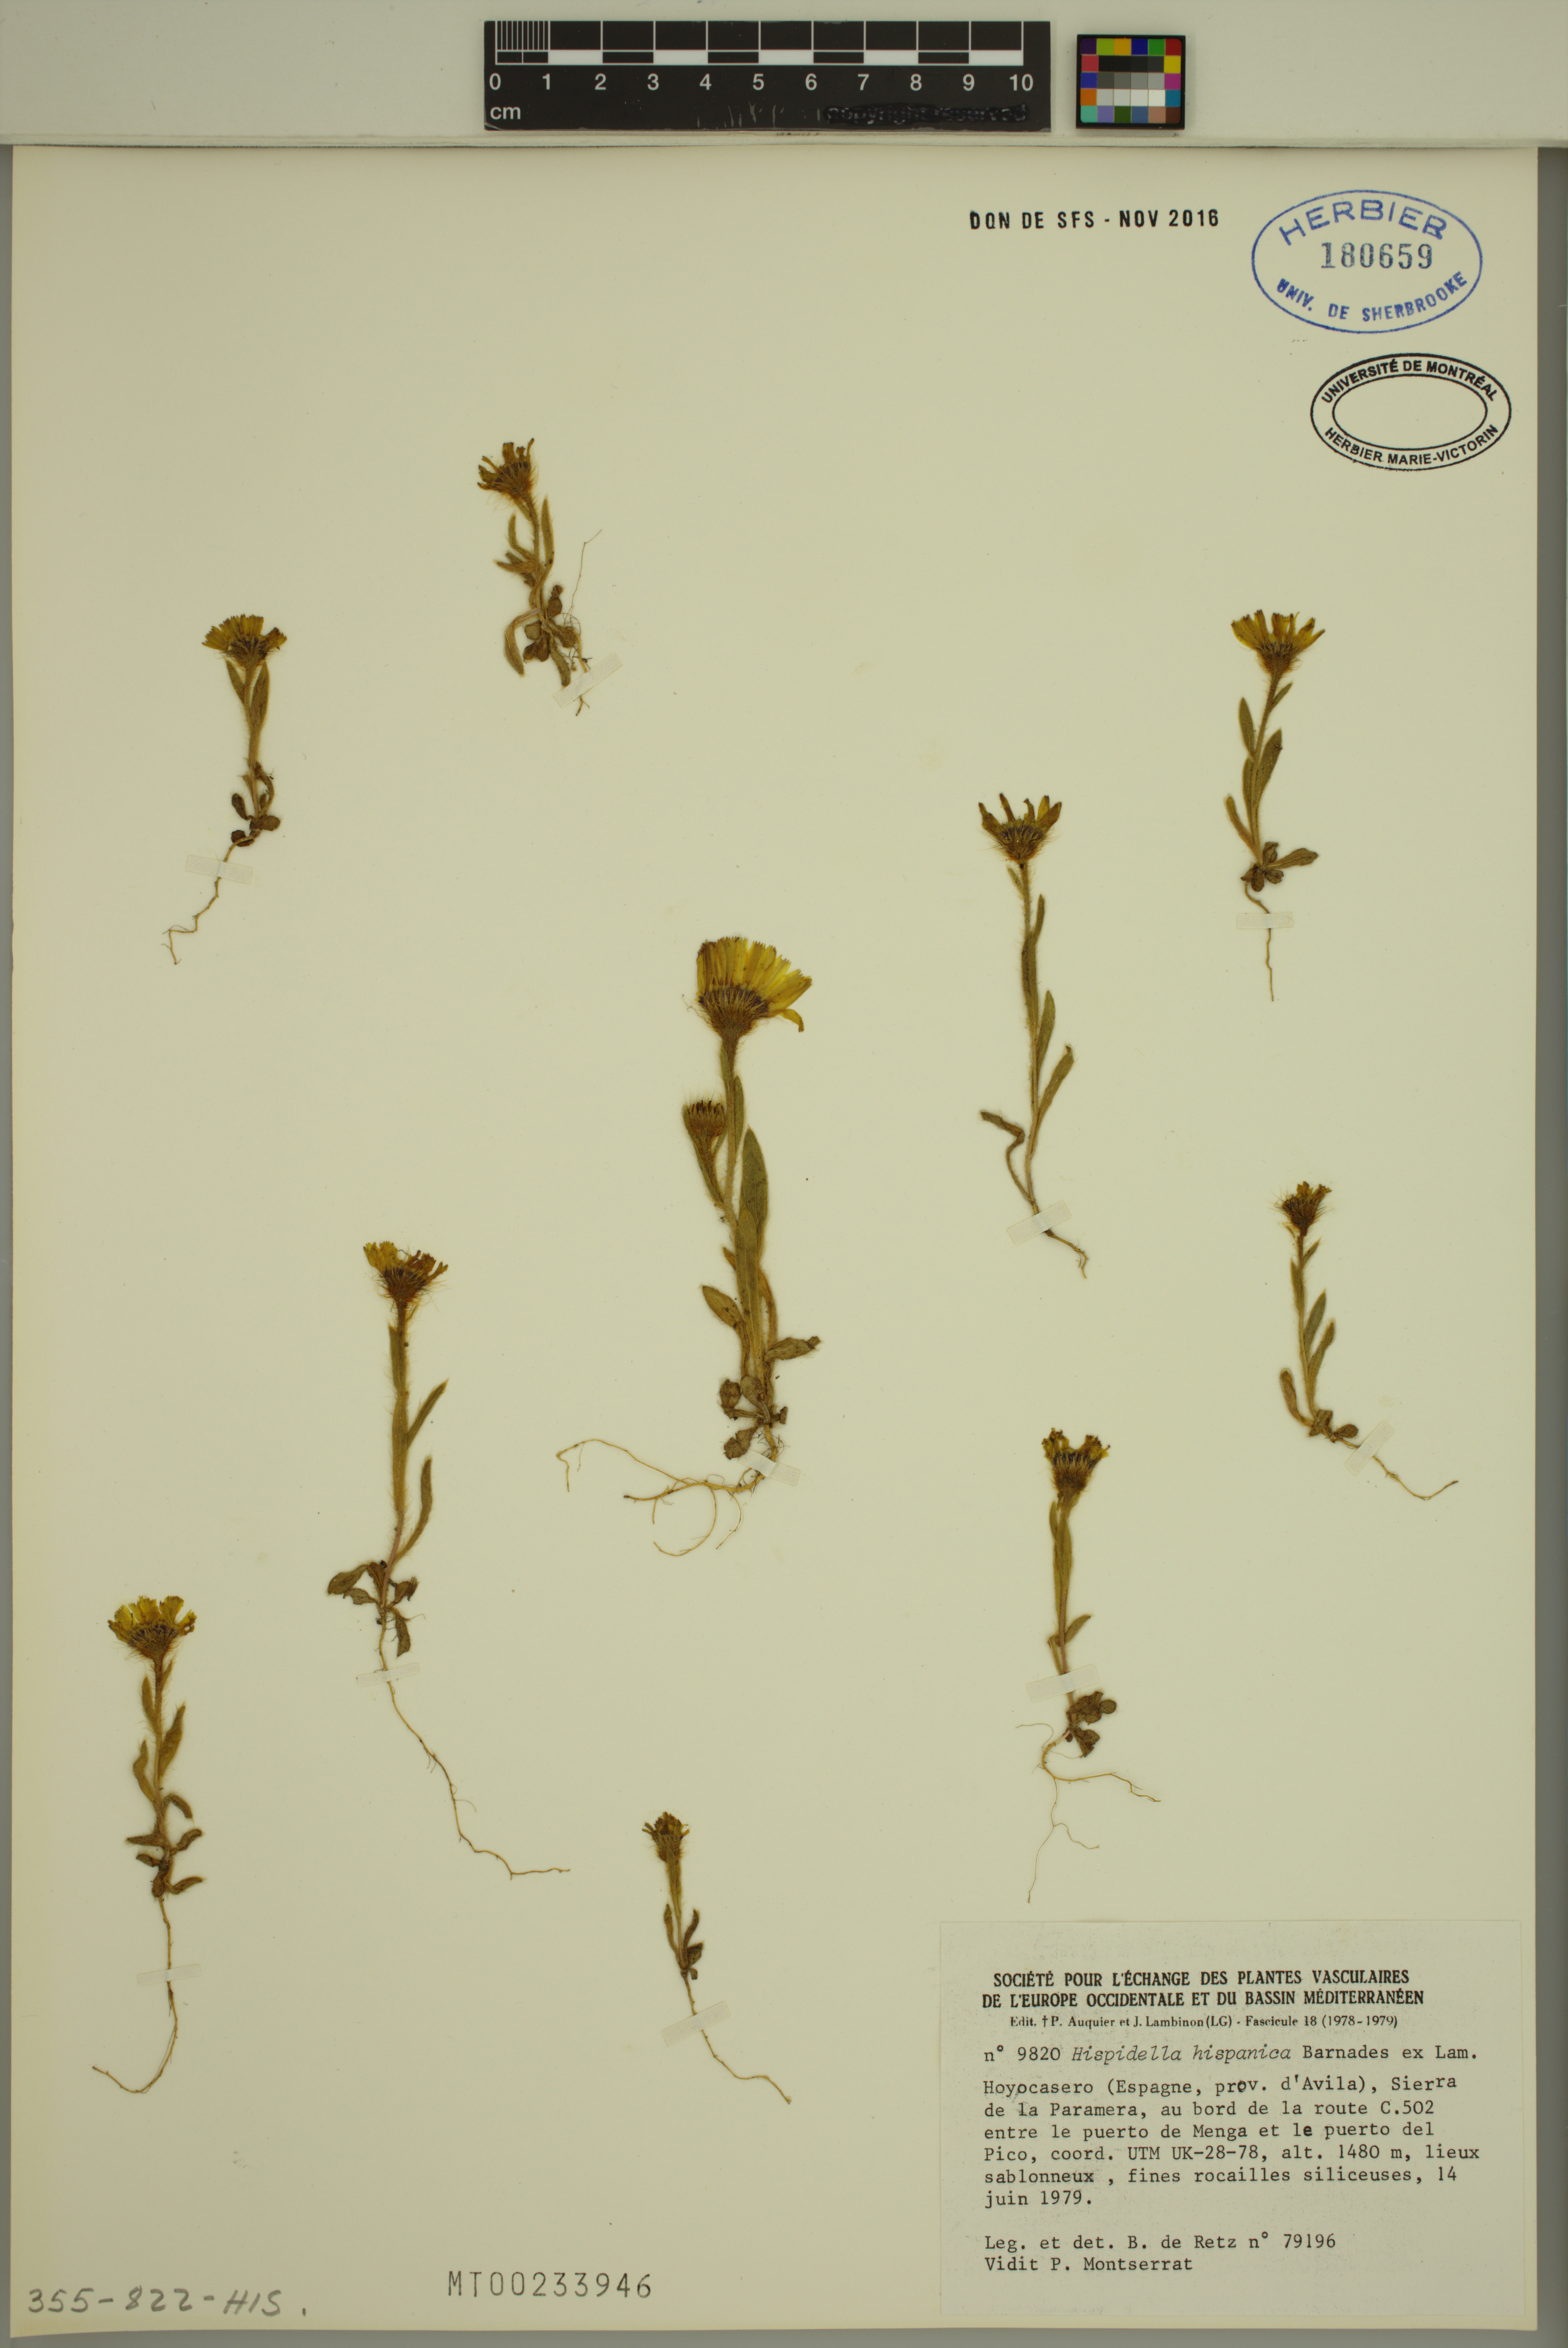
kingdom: Plantae
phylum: Tracheophyta
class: Magnoliopsida
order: Asterales
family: Asteraceae
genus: Hispidella
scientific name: Hispidella hispanica
